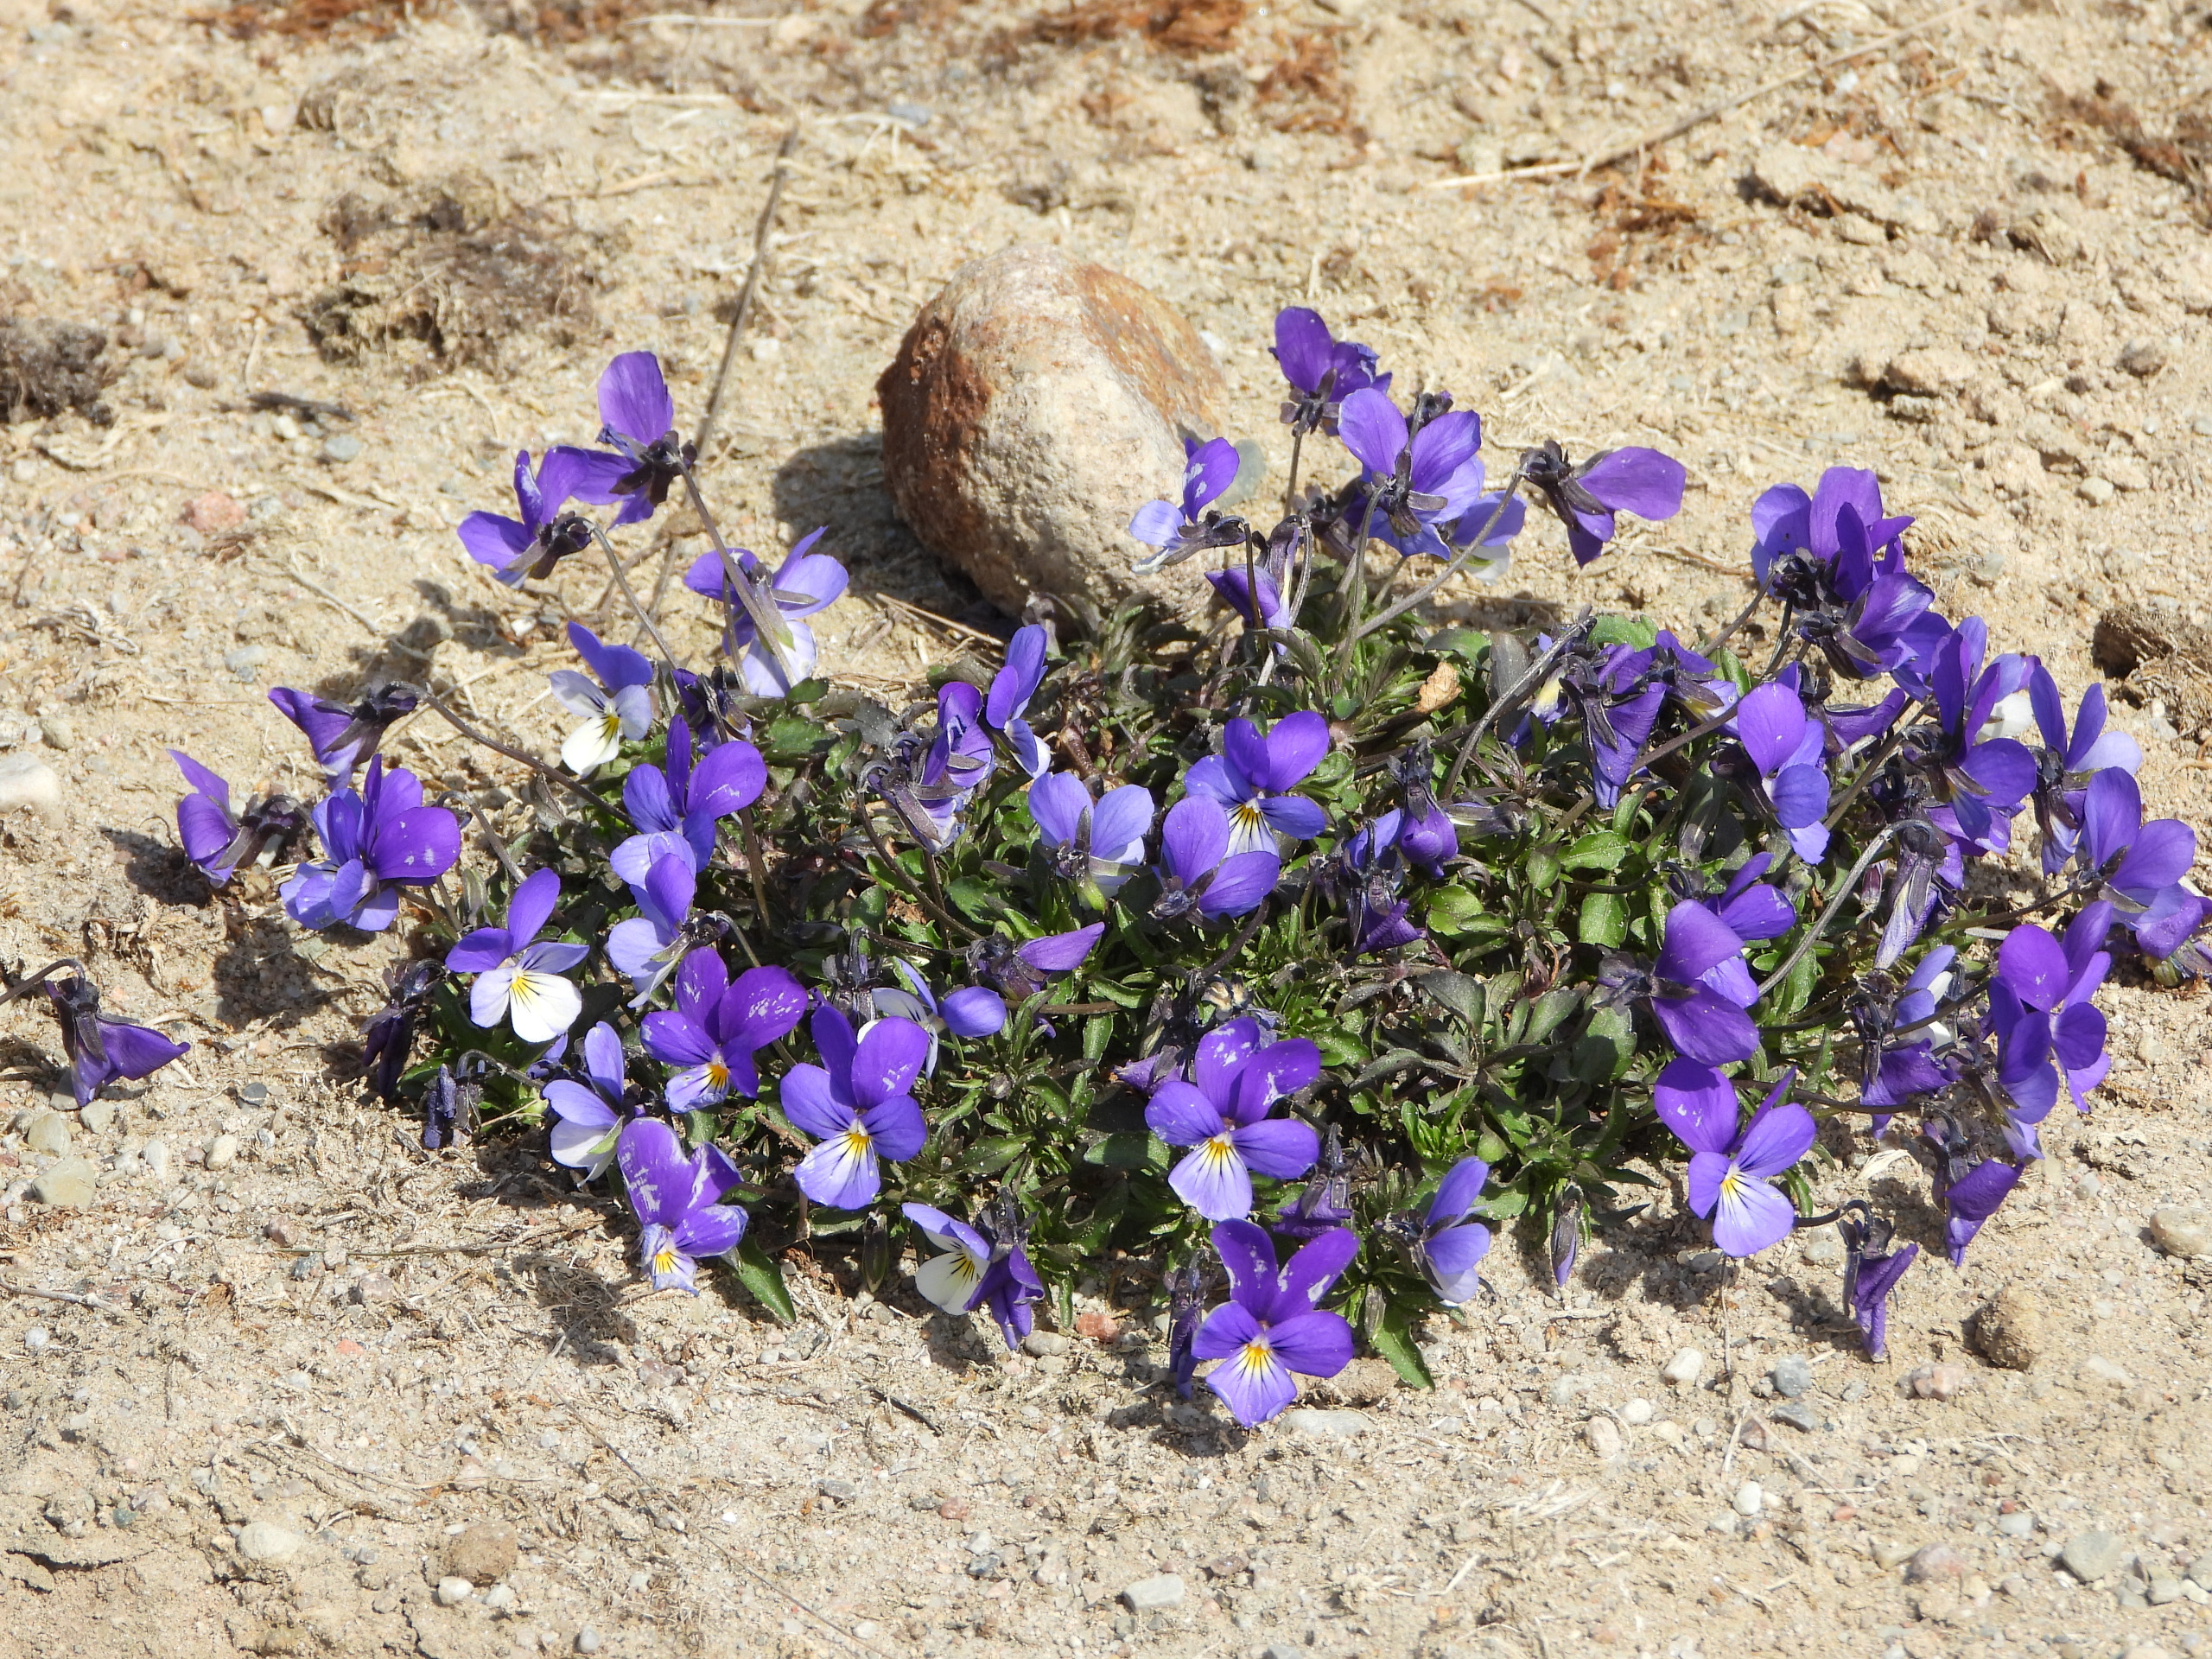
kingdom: Plantae
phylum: Tracheophyta
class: Magnoliopsida
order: Malpighiales
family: Violaceae
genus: Viola
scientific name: Viola tricolor
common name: Stedmoderblomst
